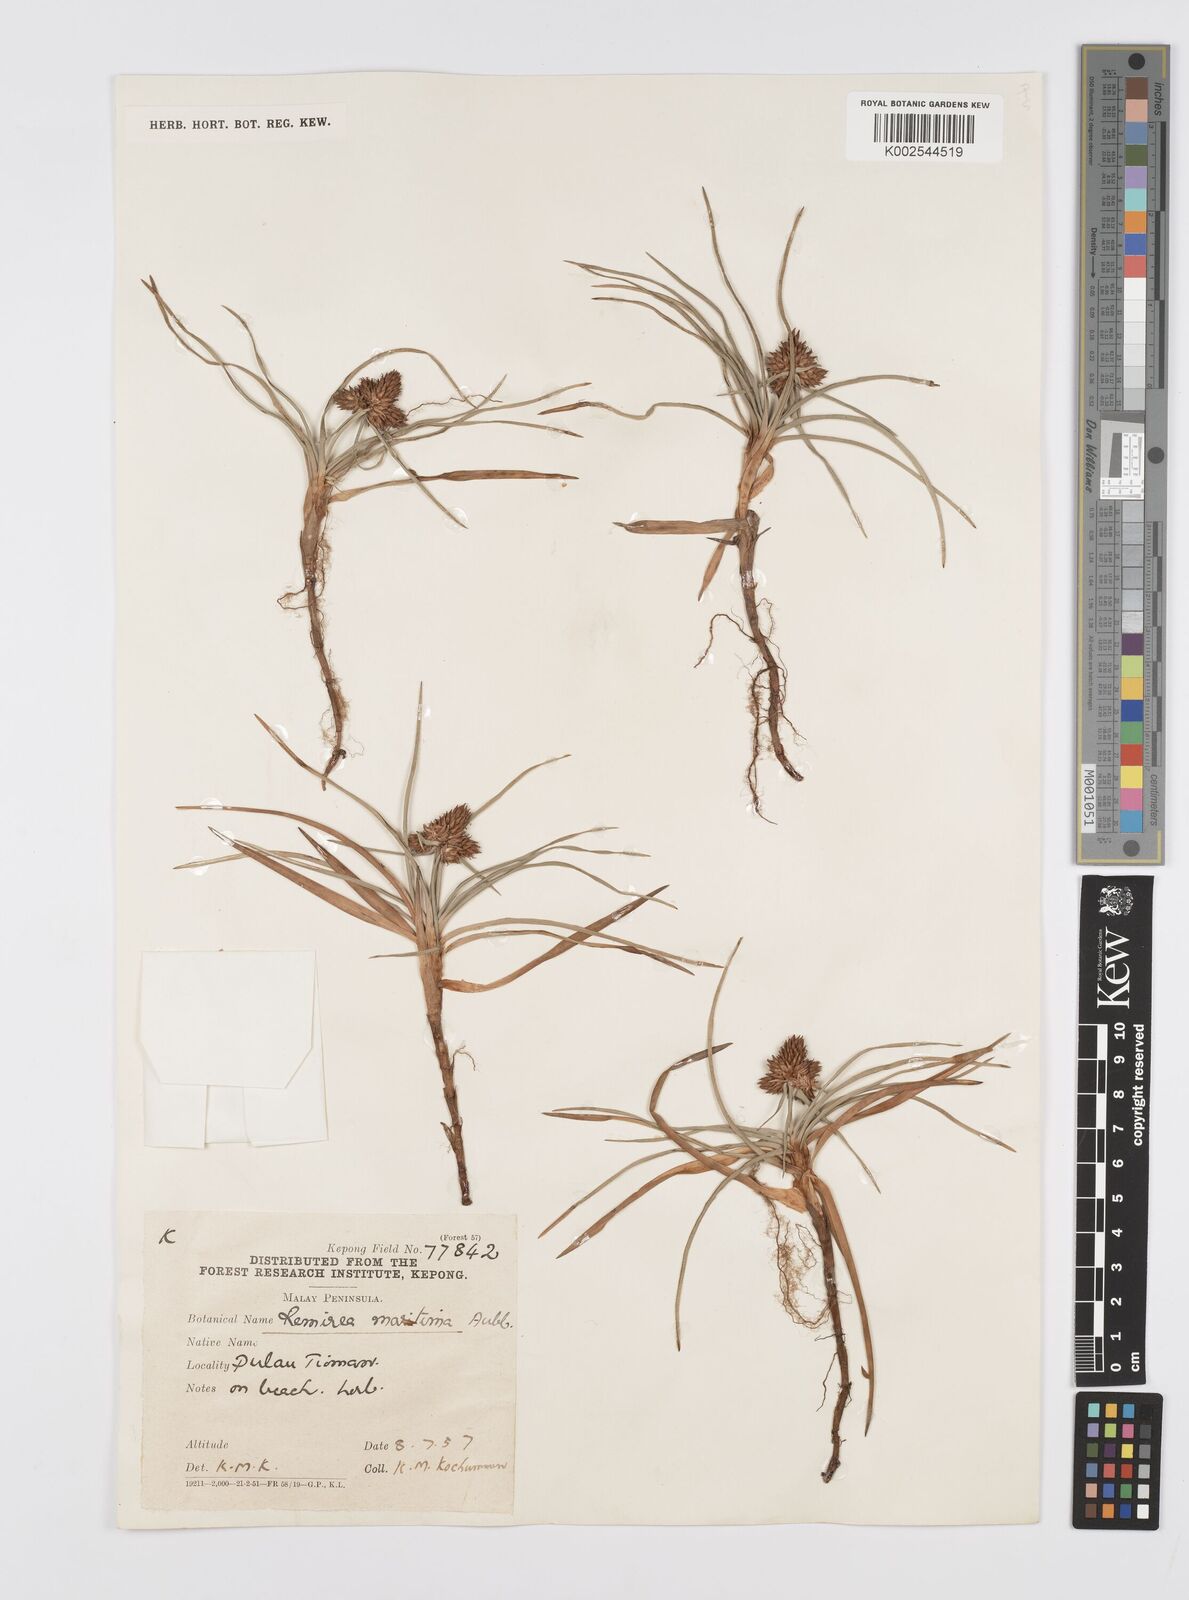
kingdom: Plantae
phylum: Tracheophyta
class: Liliopsida
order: Poales
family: Cyperaceae
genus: Cyperus
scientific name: Cyperus
